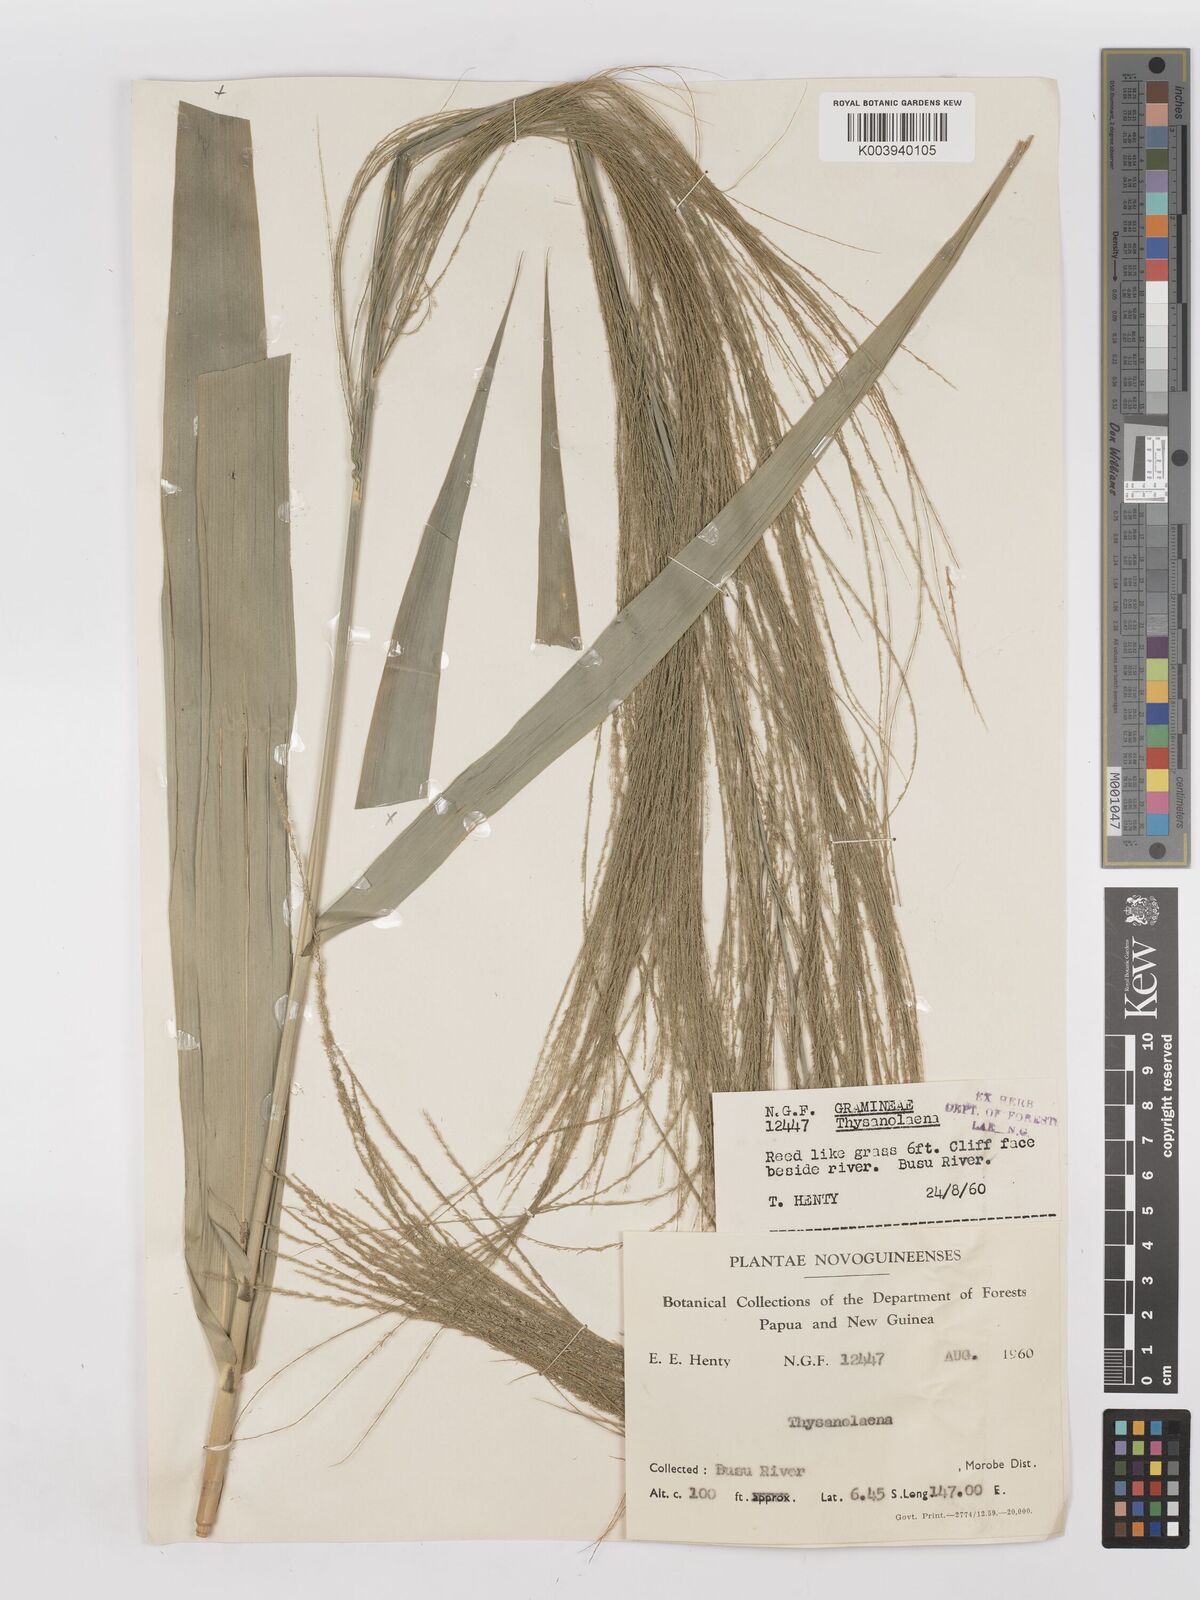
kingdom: Plantae
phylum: Tracheophyta
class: Liliopsida
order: Poales
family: Poaceae
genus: Thysanolaena
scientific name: Thysanolaena latifolia
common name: Tiger grass
